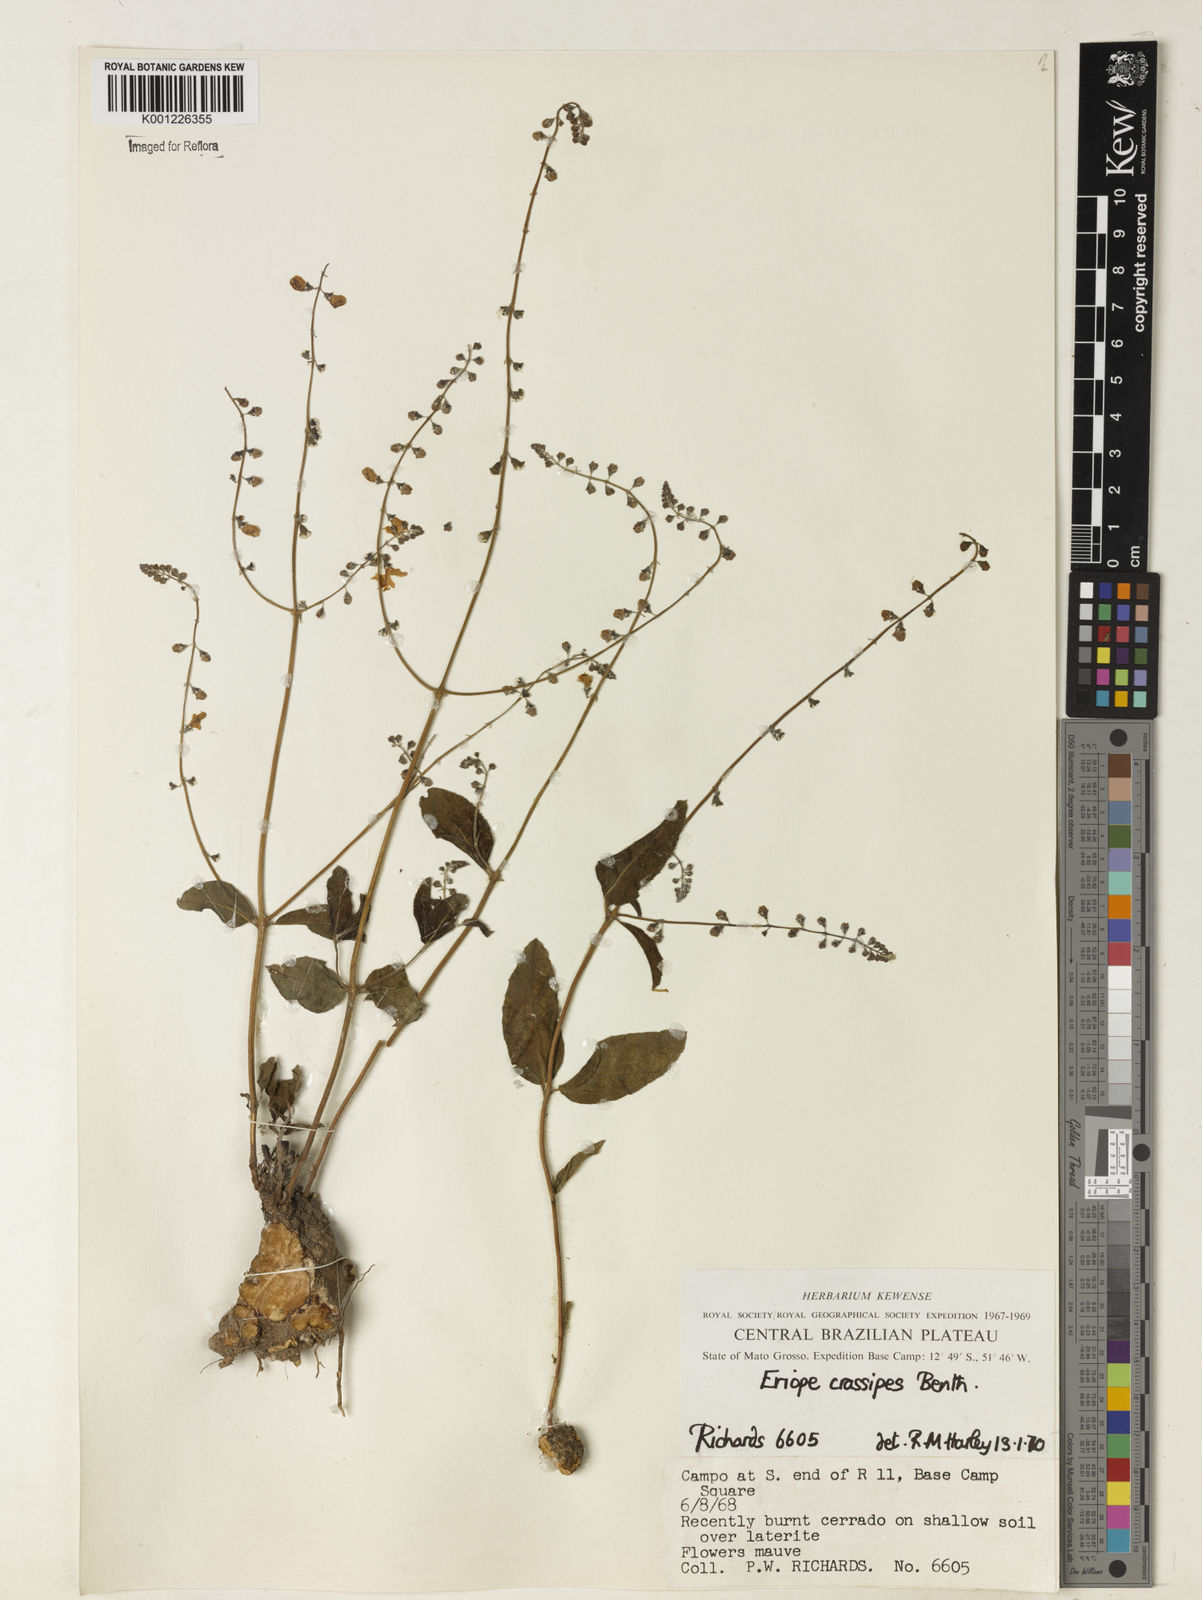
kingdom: Plantae
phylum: Tracheophyta
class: Magnoliopsida
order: Lamiales
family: Lamiaceae
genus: Eriope
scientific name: Eriope crassipes
